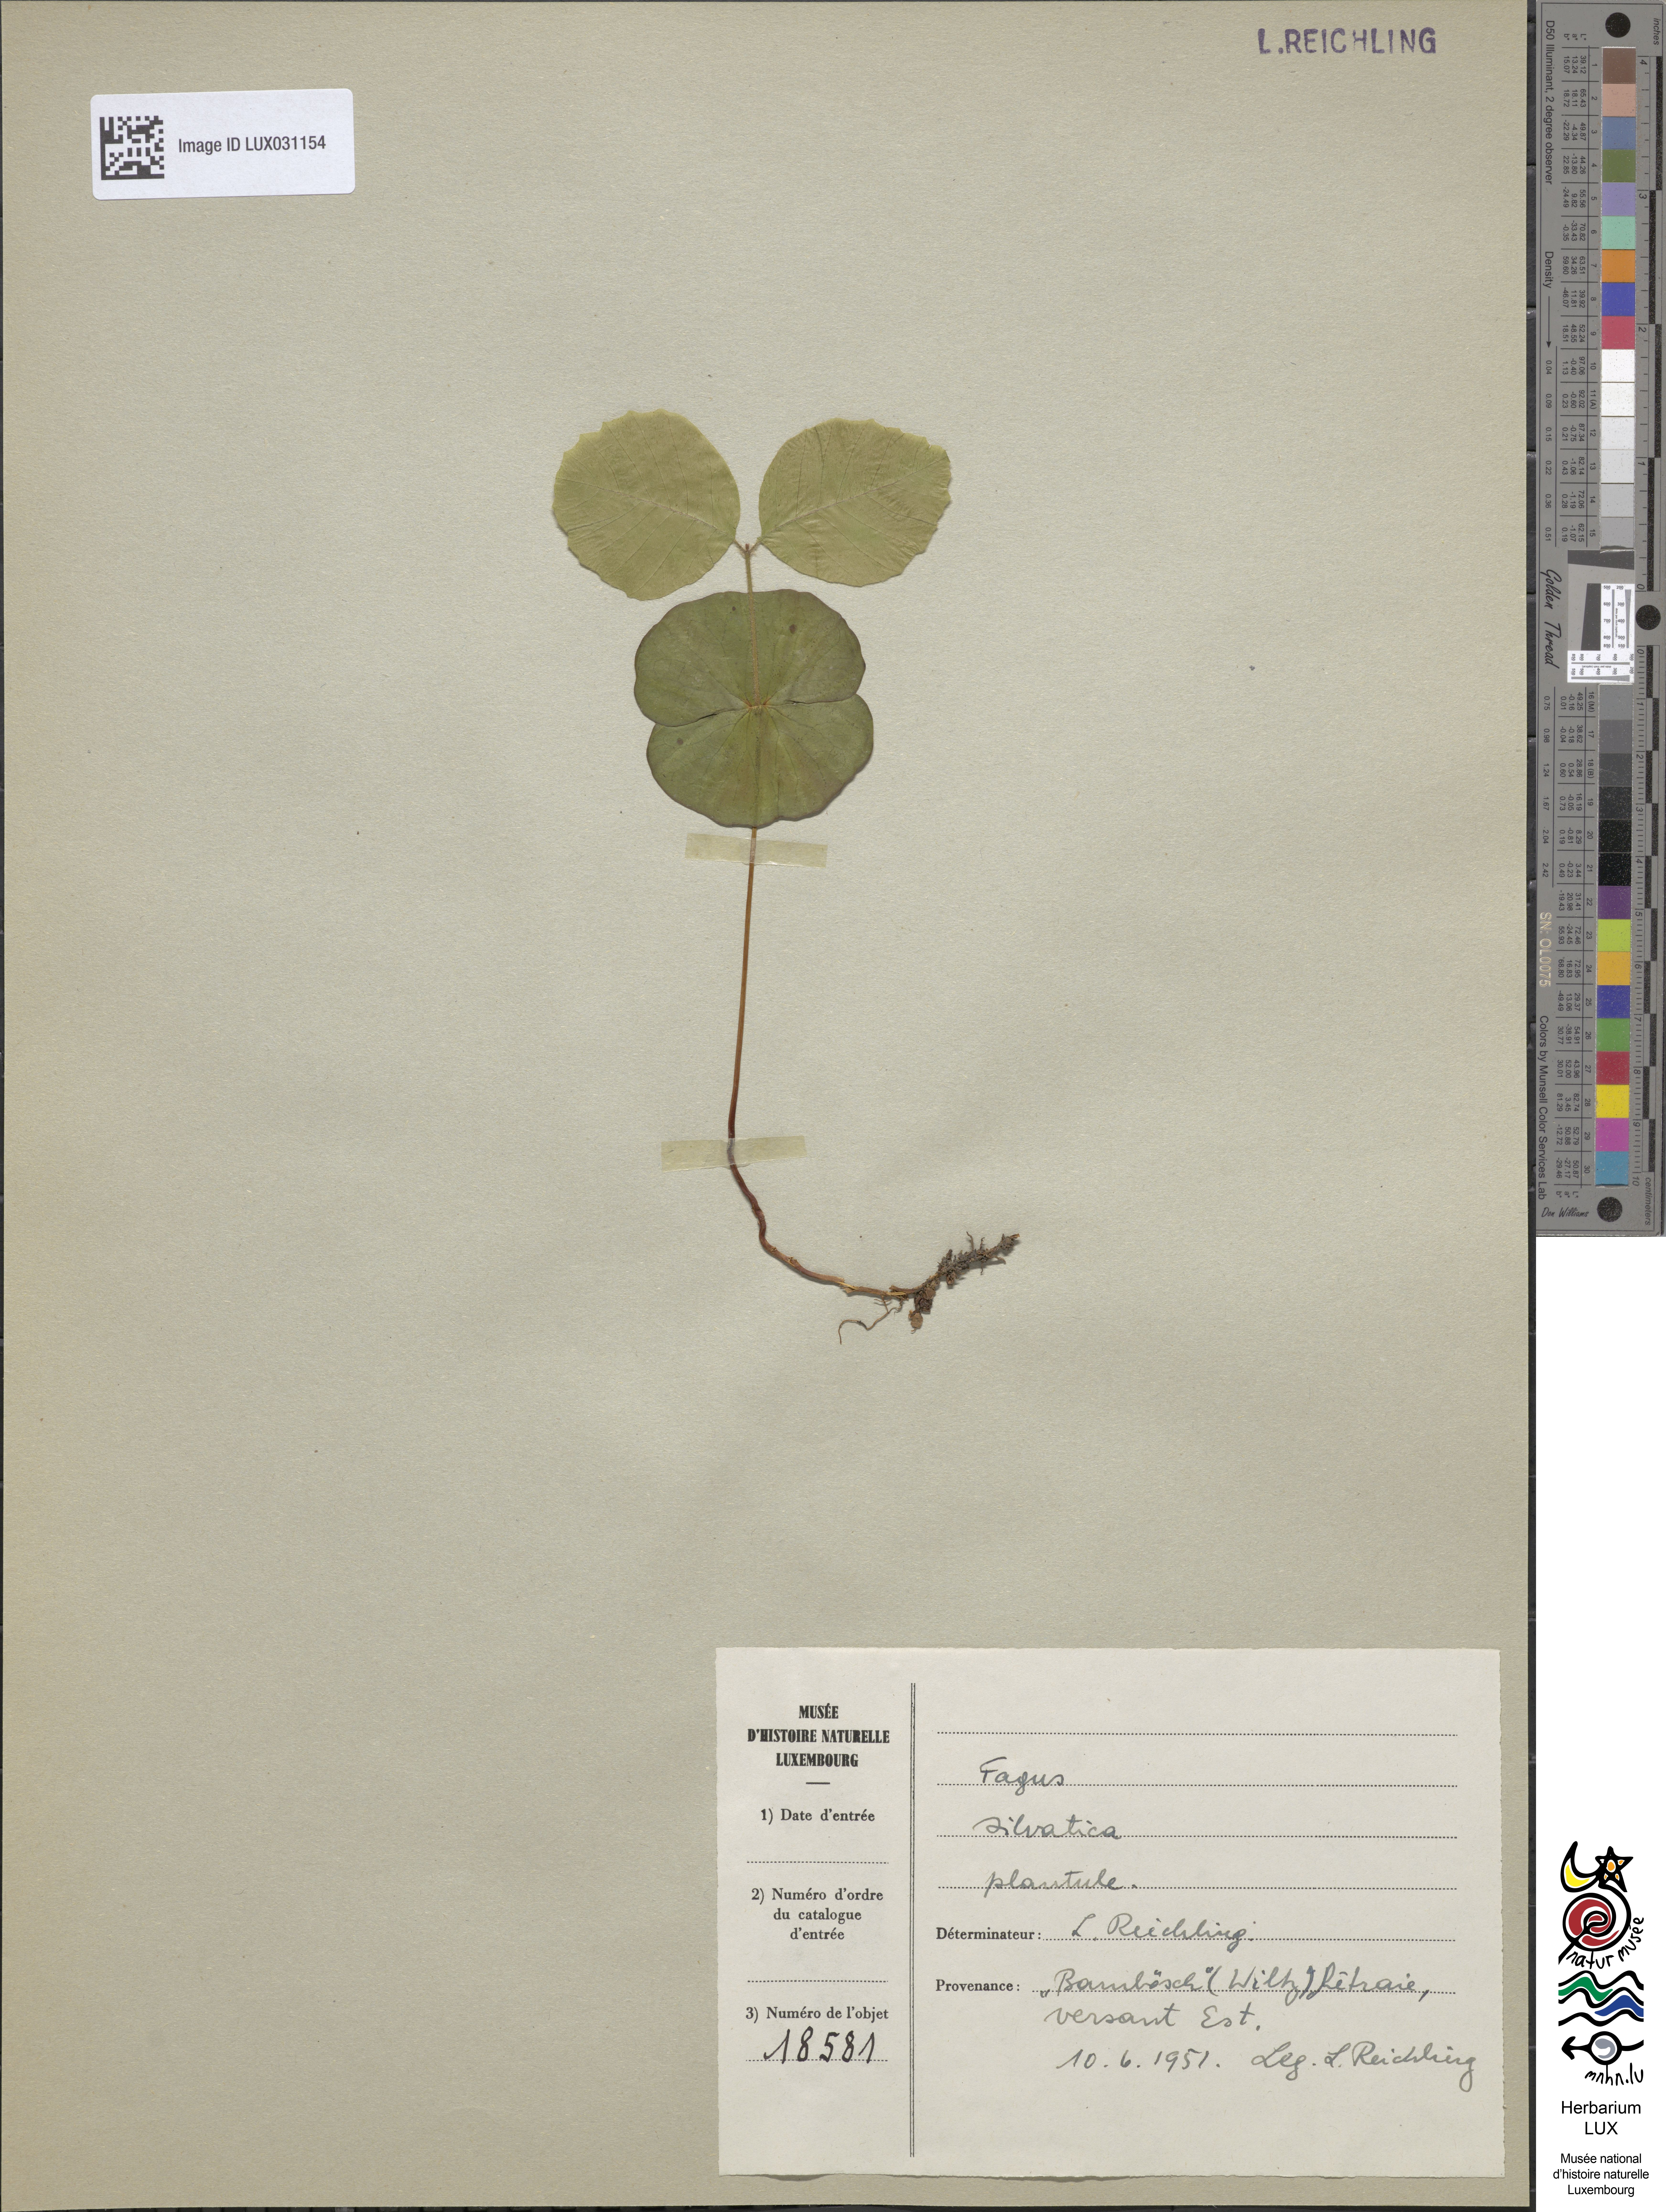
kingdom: Plantae
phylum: Tracheophyta
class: Magnoliopsida
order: Fagales
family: Fagaceae
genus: Fagus
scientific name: Fagus sylvatica
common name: Beech
